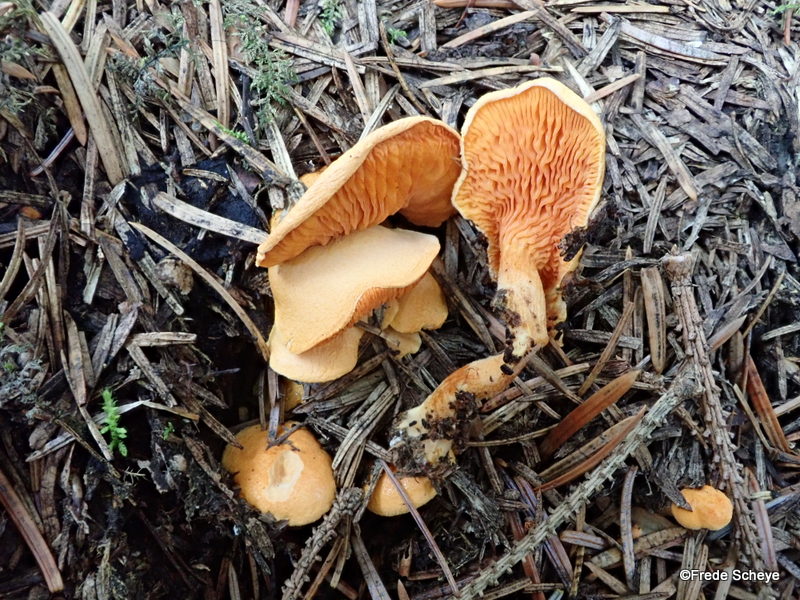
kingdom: Fungi
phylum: Basidiomycota
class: Agaricomycetes
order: Boletales
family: Hygrophoropsidaceae
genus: Hygrophoropsis
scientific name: Hygrophoropsis aurantiaca
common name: almindelig orangekantarel
